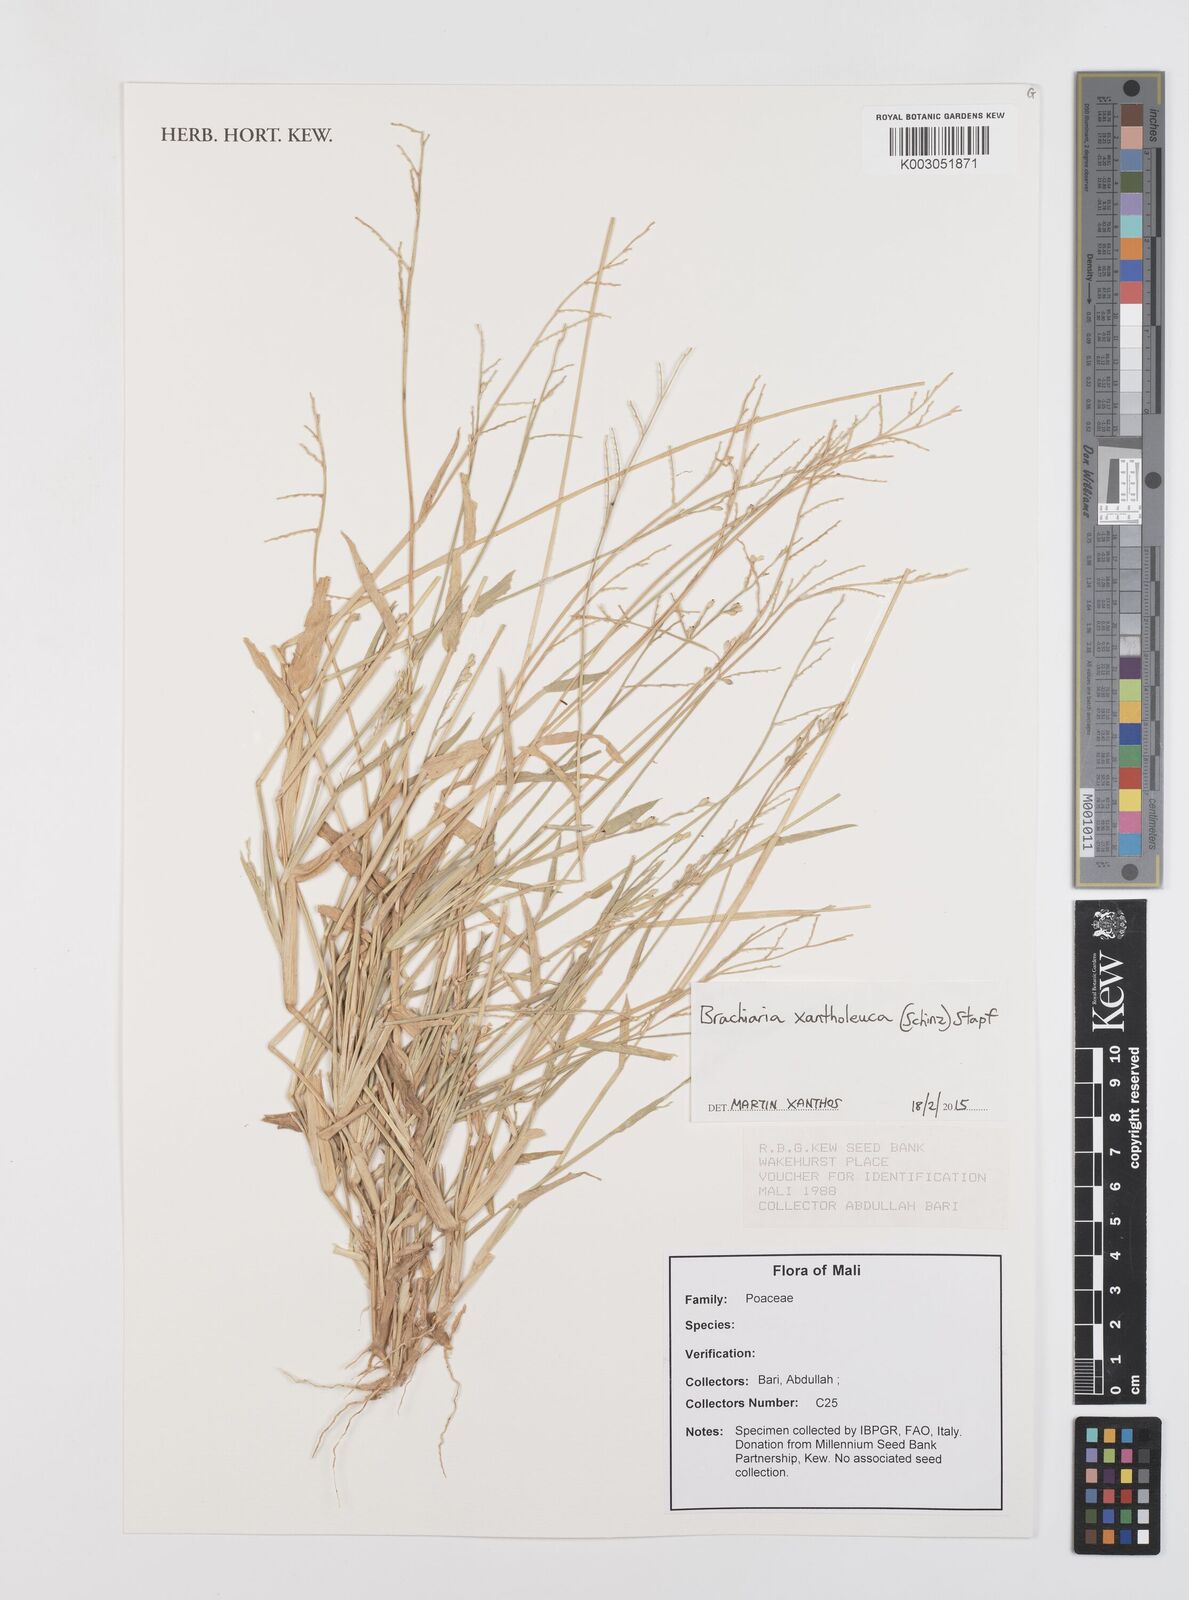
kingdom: Plantae
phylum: Tracheophyta
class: Liliopsida
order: Poales
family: Poaceae
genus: Urochloa
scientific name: Urochloa xantholeuca
